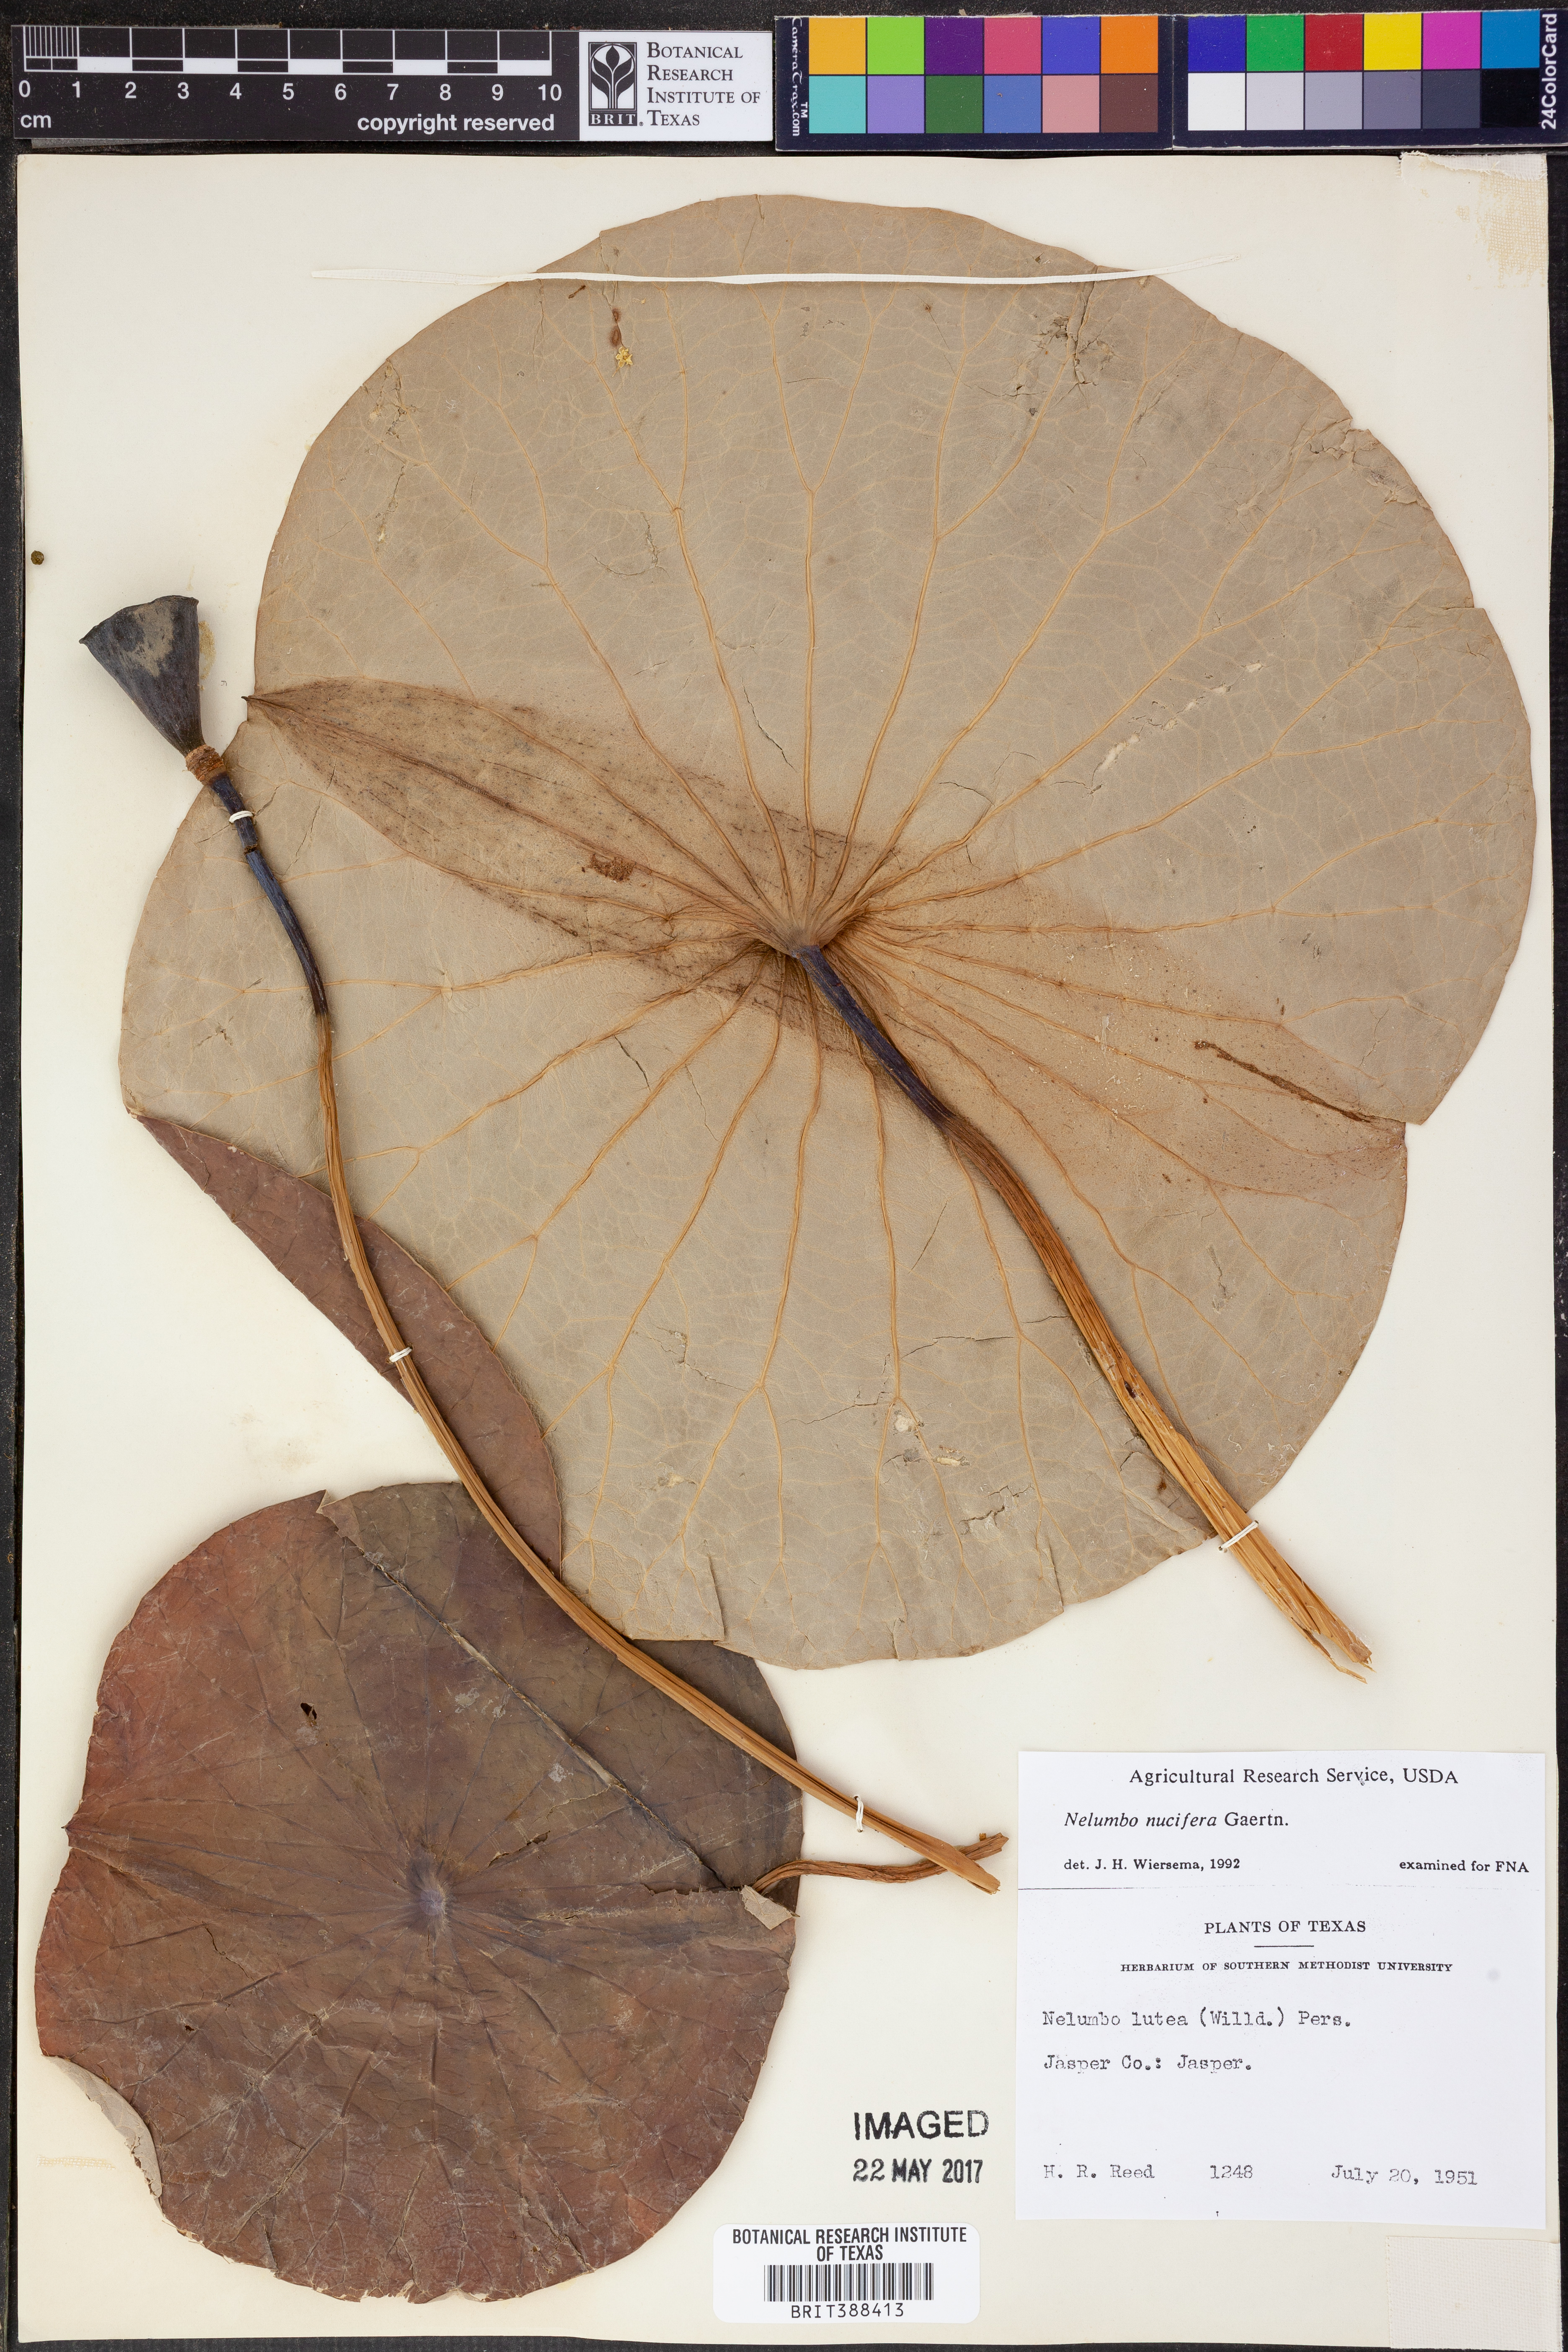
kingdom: Plantae
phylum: Tracheophyta
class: Magnoliopsida
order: Proteales
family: Nelumbonaceae
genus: Nelumbo
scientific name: Nelumbo nucifera
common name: Sacred lotus
